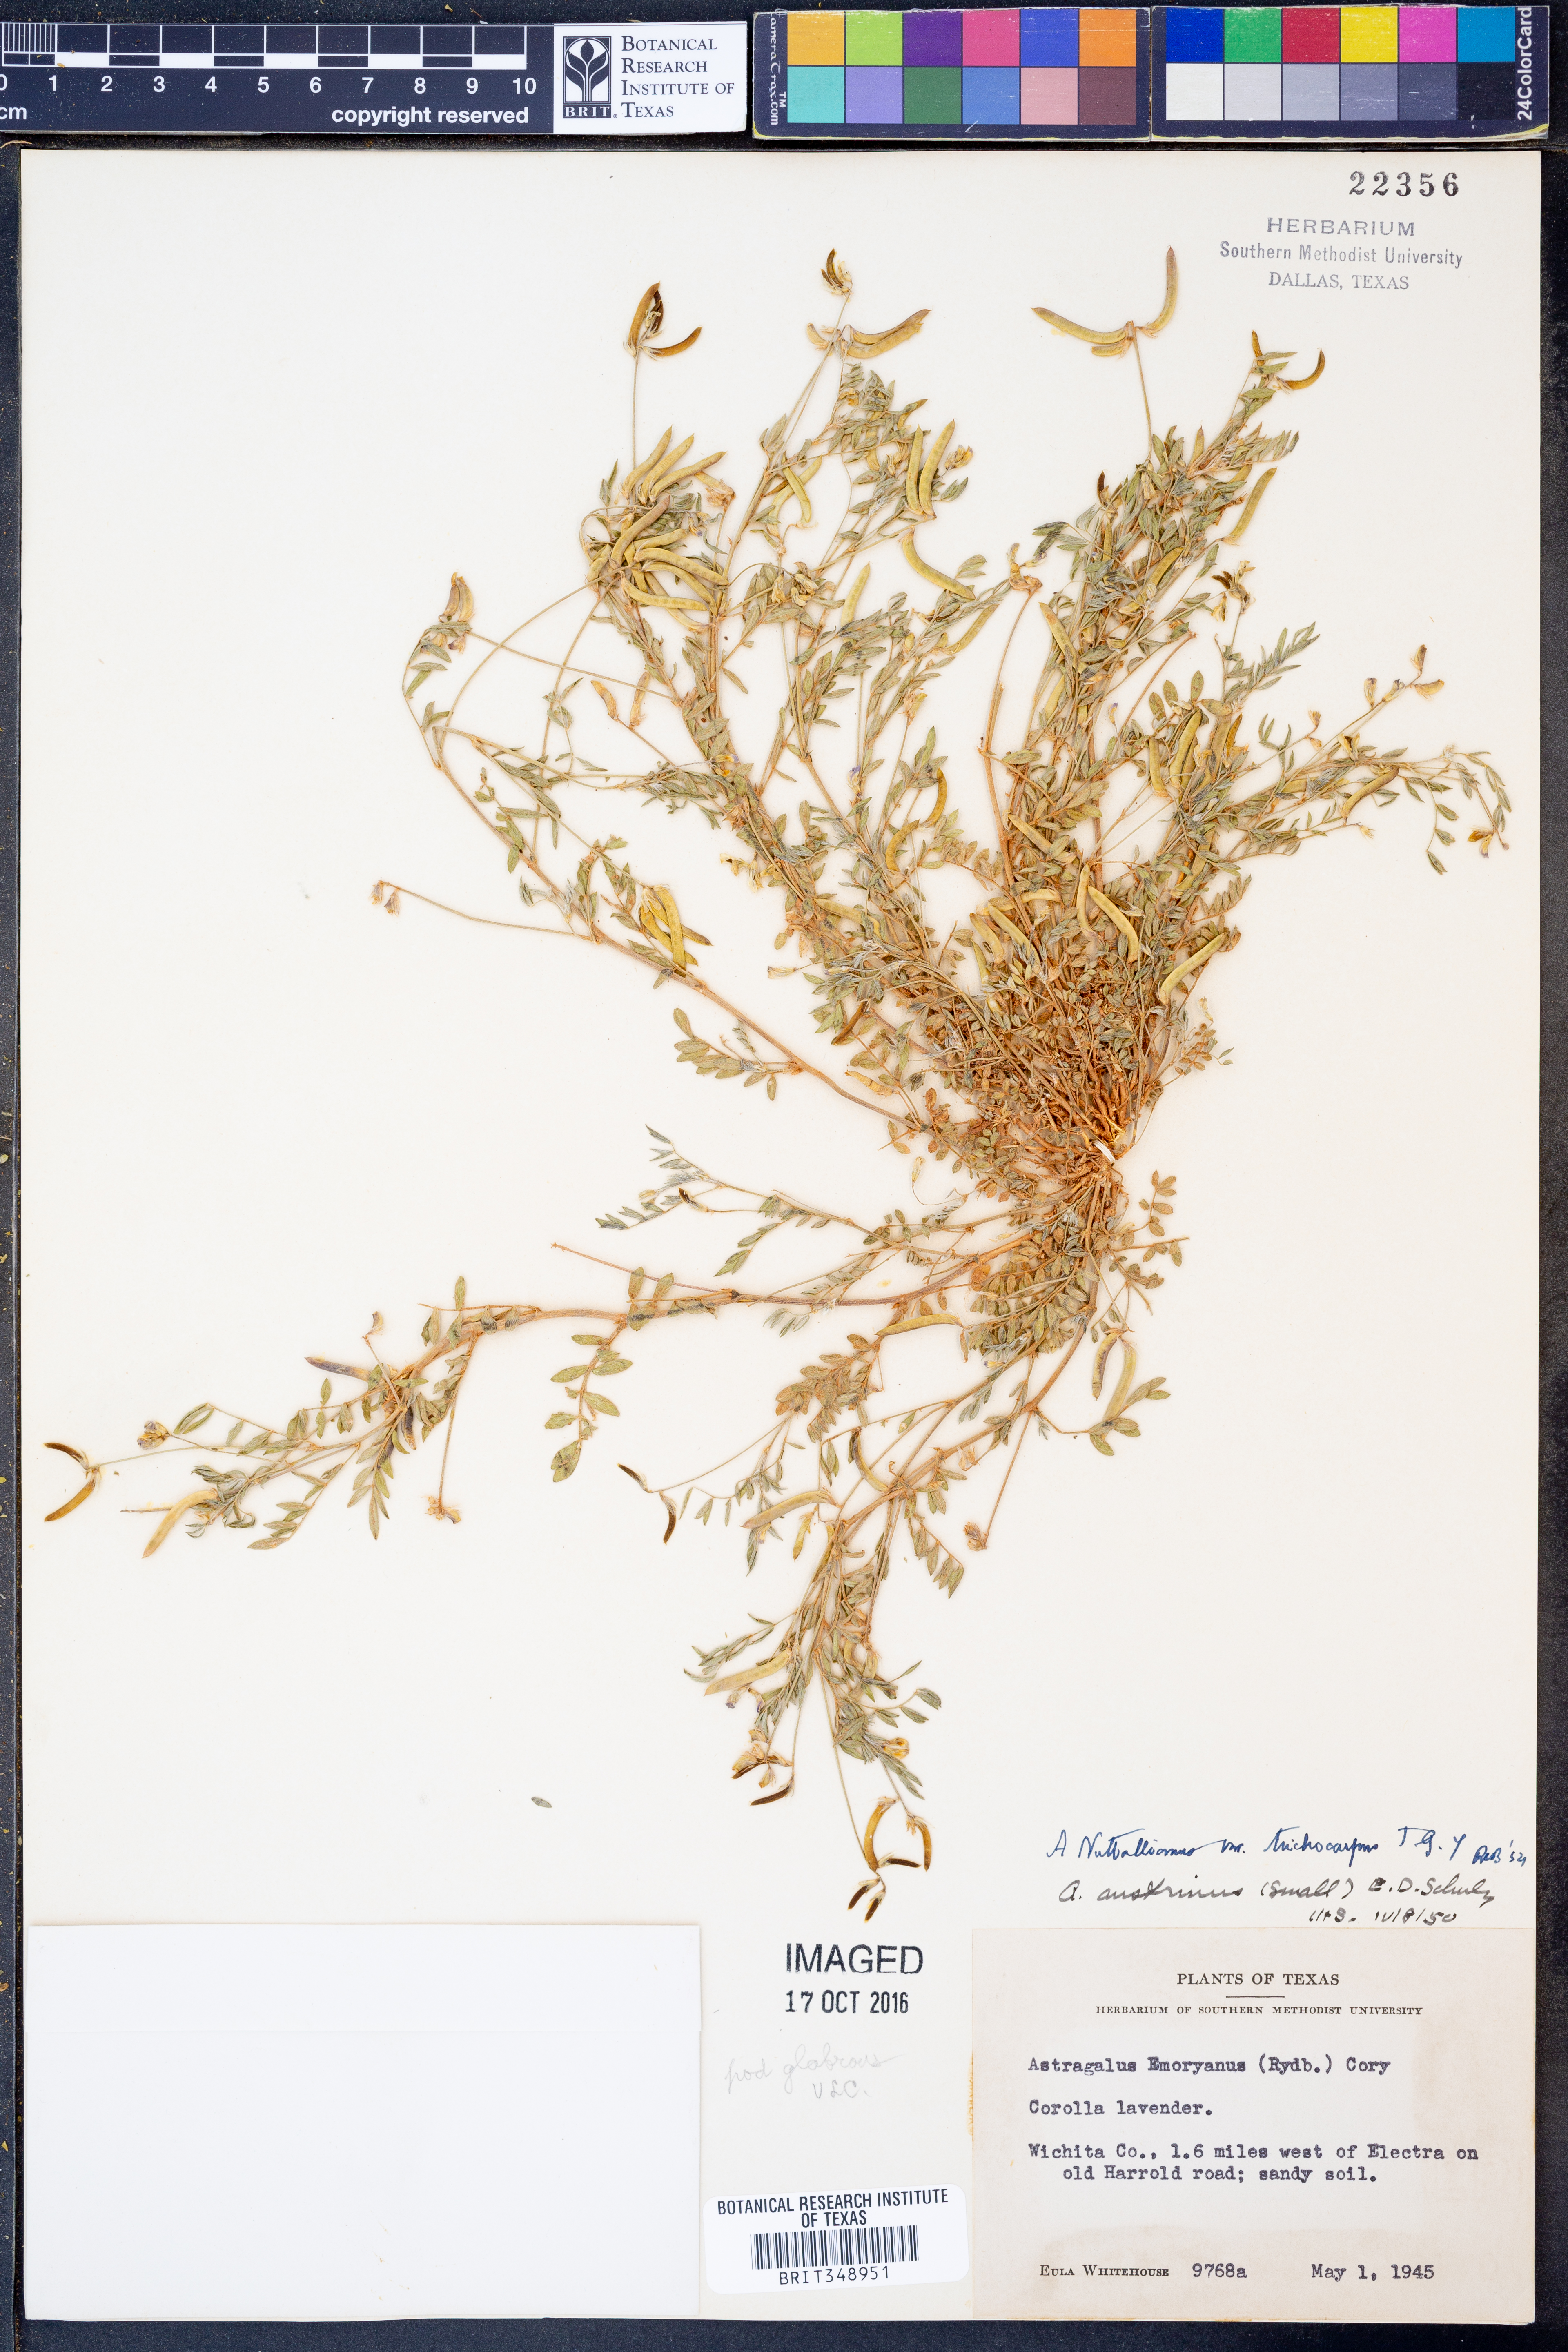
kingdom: Plantae
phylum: Tracheophyta
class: Magnoliopsida
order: Fabales
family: Fabaceae
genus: Astragalus
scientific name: Astragalus nuttallianus
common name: Smallflowered milkvetch
